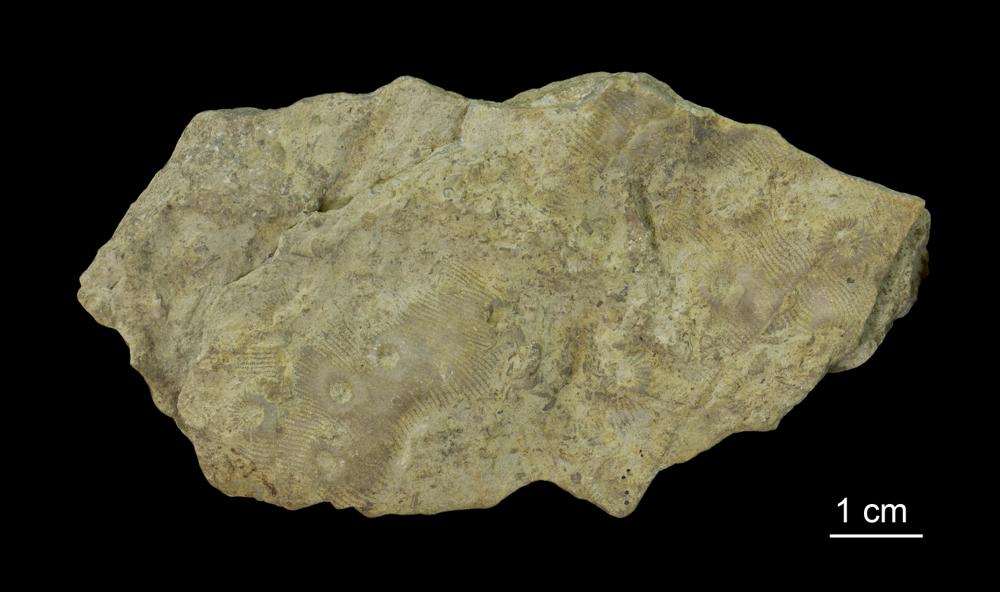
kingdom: Animalia
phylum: Cnidaria
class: Anthozoa
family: Cyathophyllidae
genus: Cyathophyllum
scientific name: Cyathophyllum
